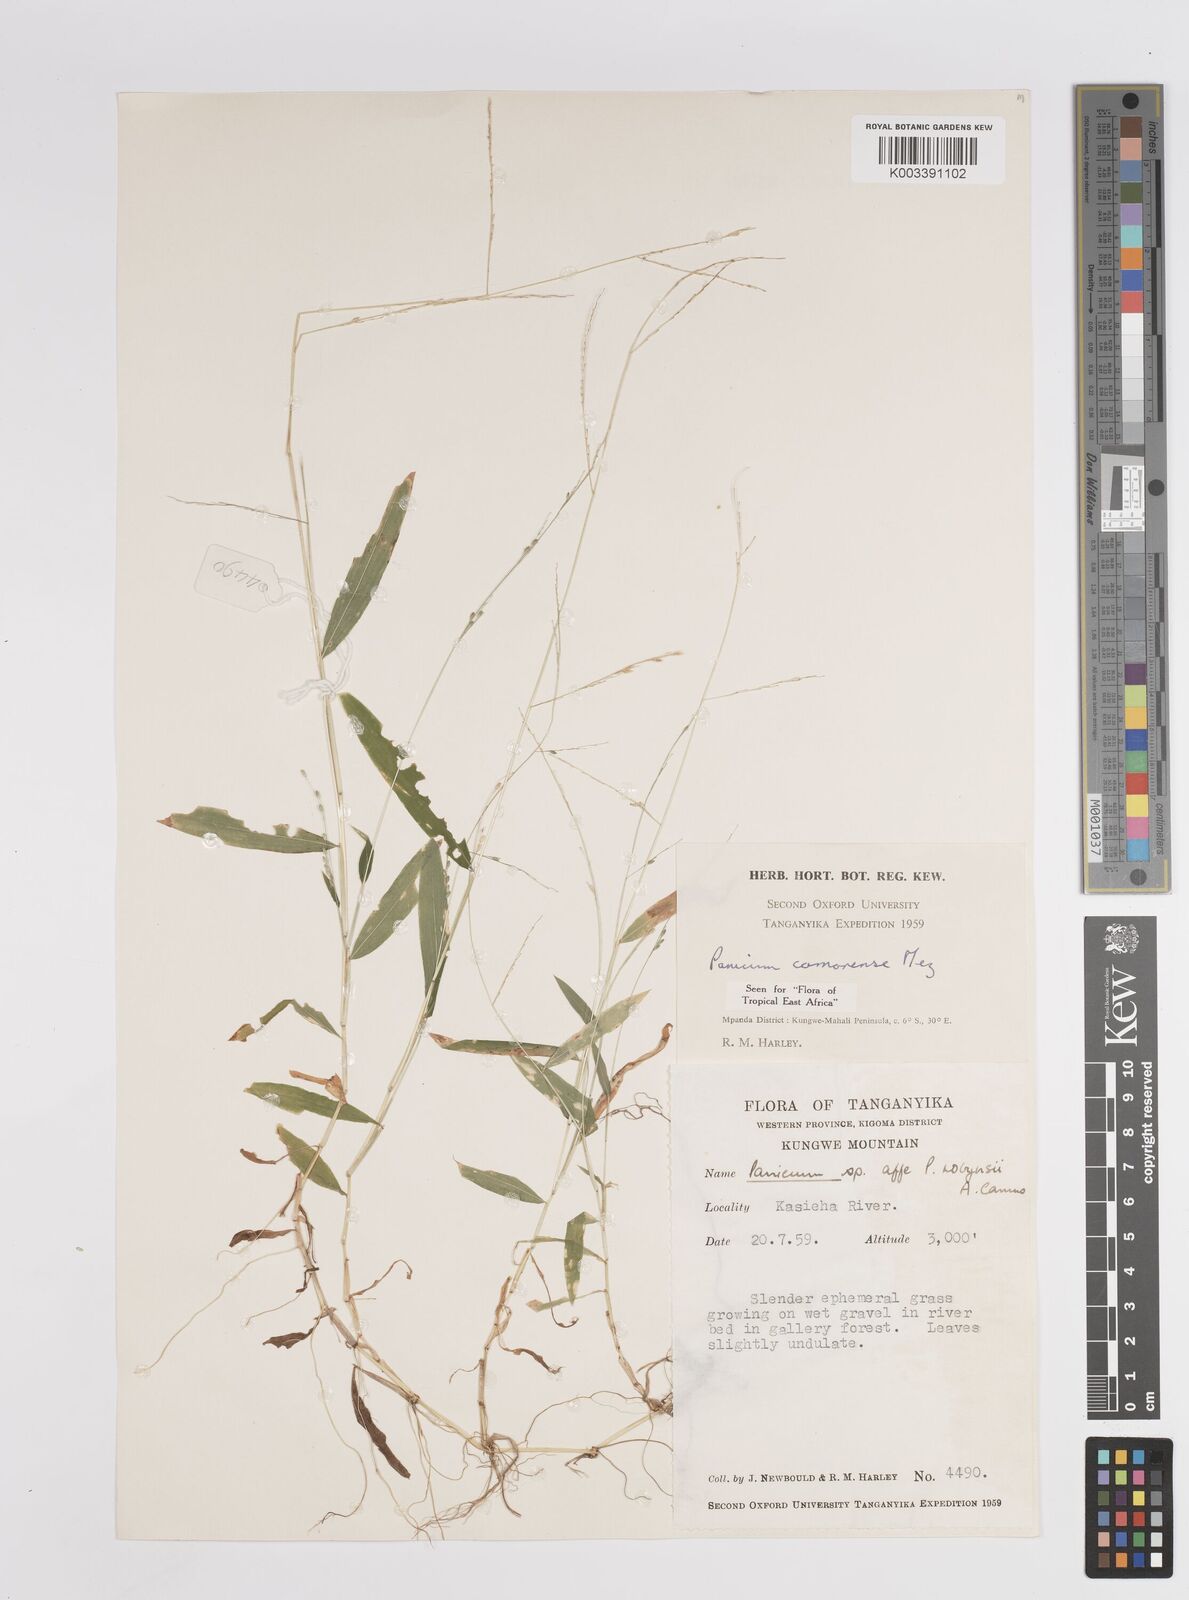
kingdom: Plantae
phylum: Tracheophyta
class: Liliopsida
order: Poales
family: Poaceae
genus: Panicum
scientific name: Panicum comorense
